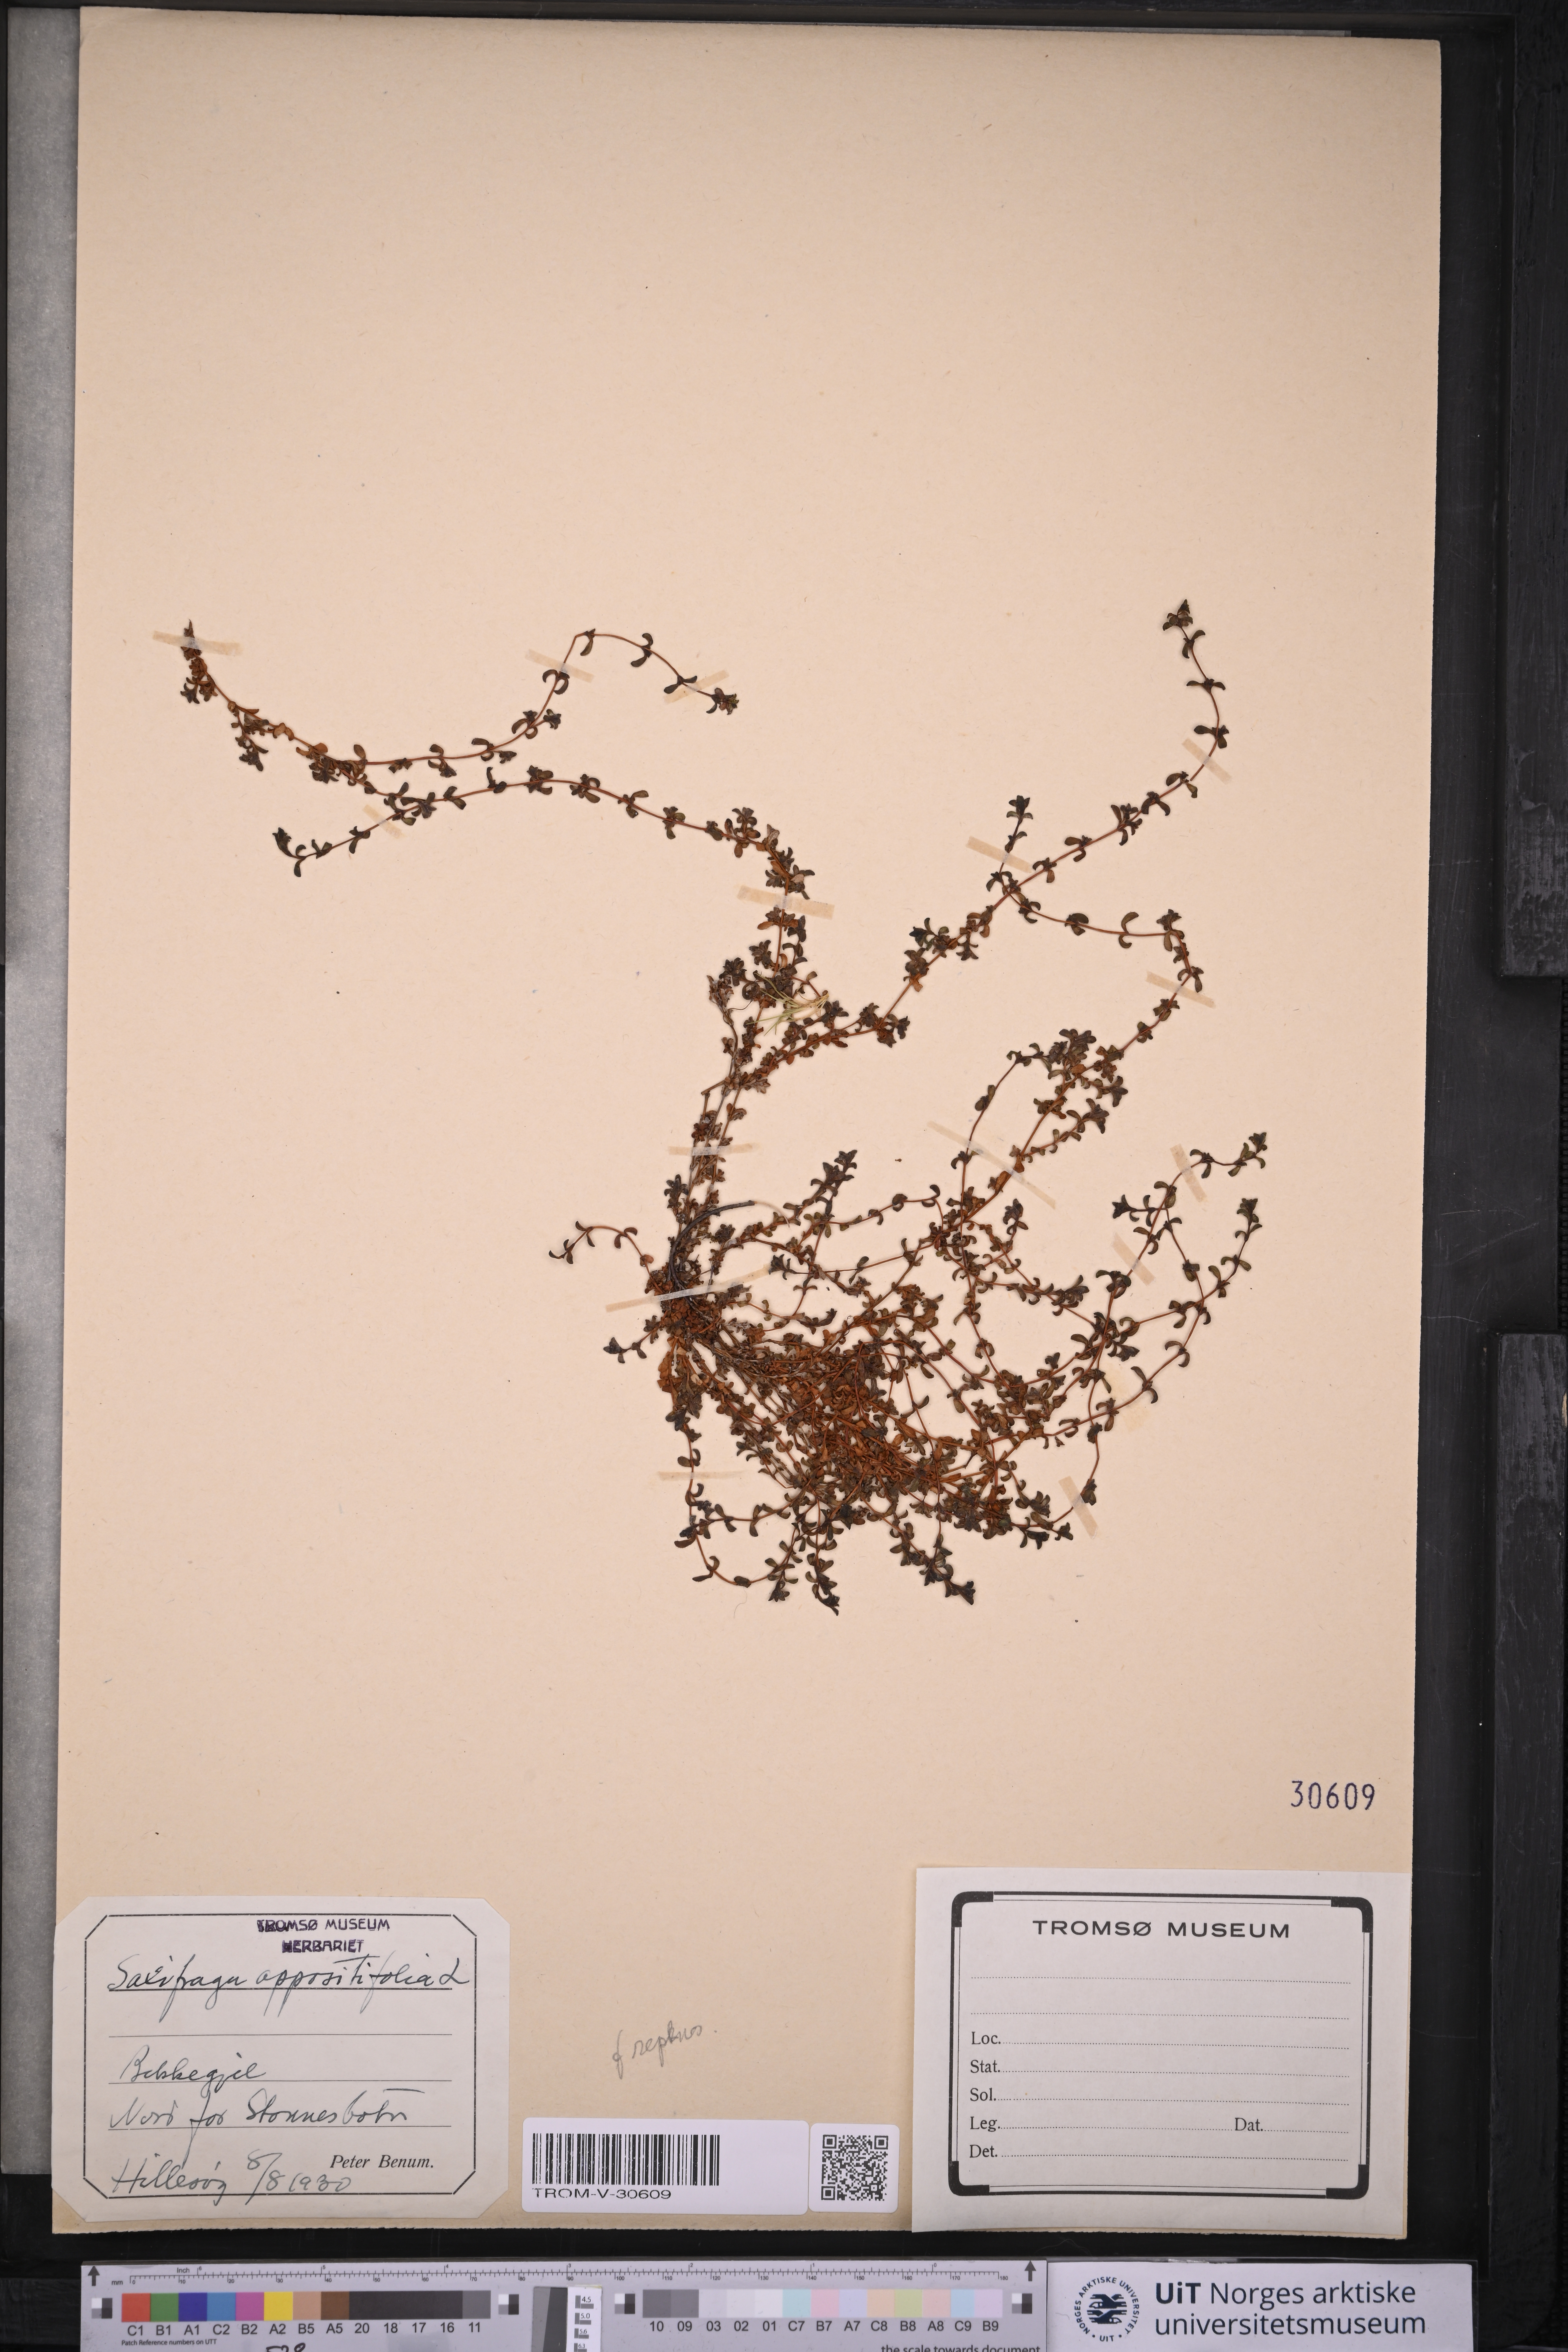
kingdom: Plantae
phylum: Tracheophyta
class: Magnoliopsida
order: Saxifragales
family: Saxifragaceae
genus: Saxifraga
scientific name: Saxifraga oppositifolia
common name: Purple saxifrage
